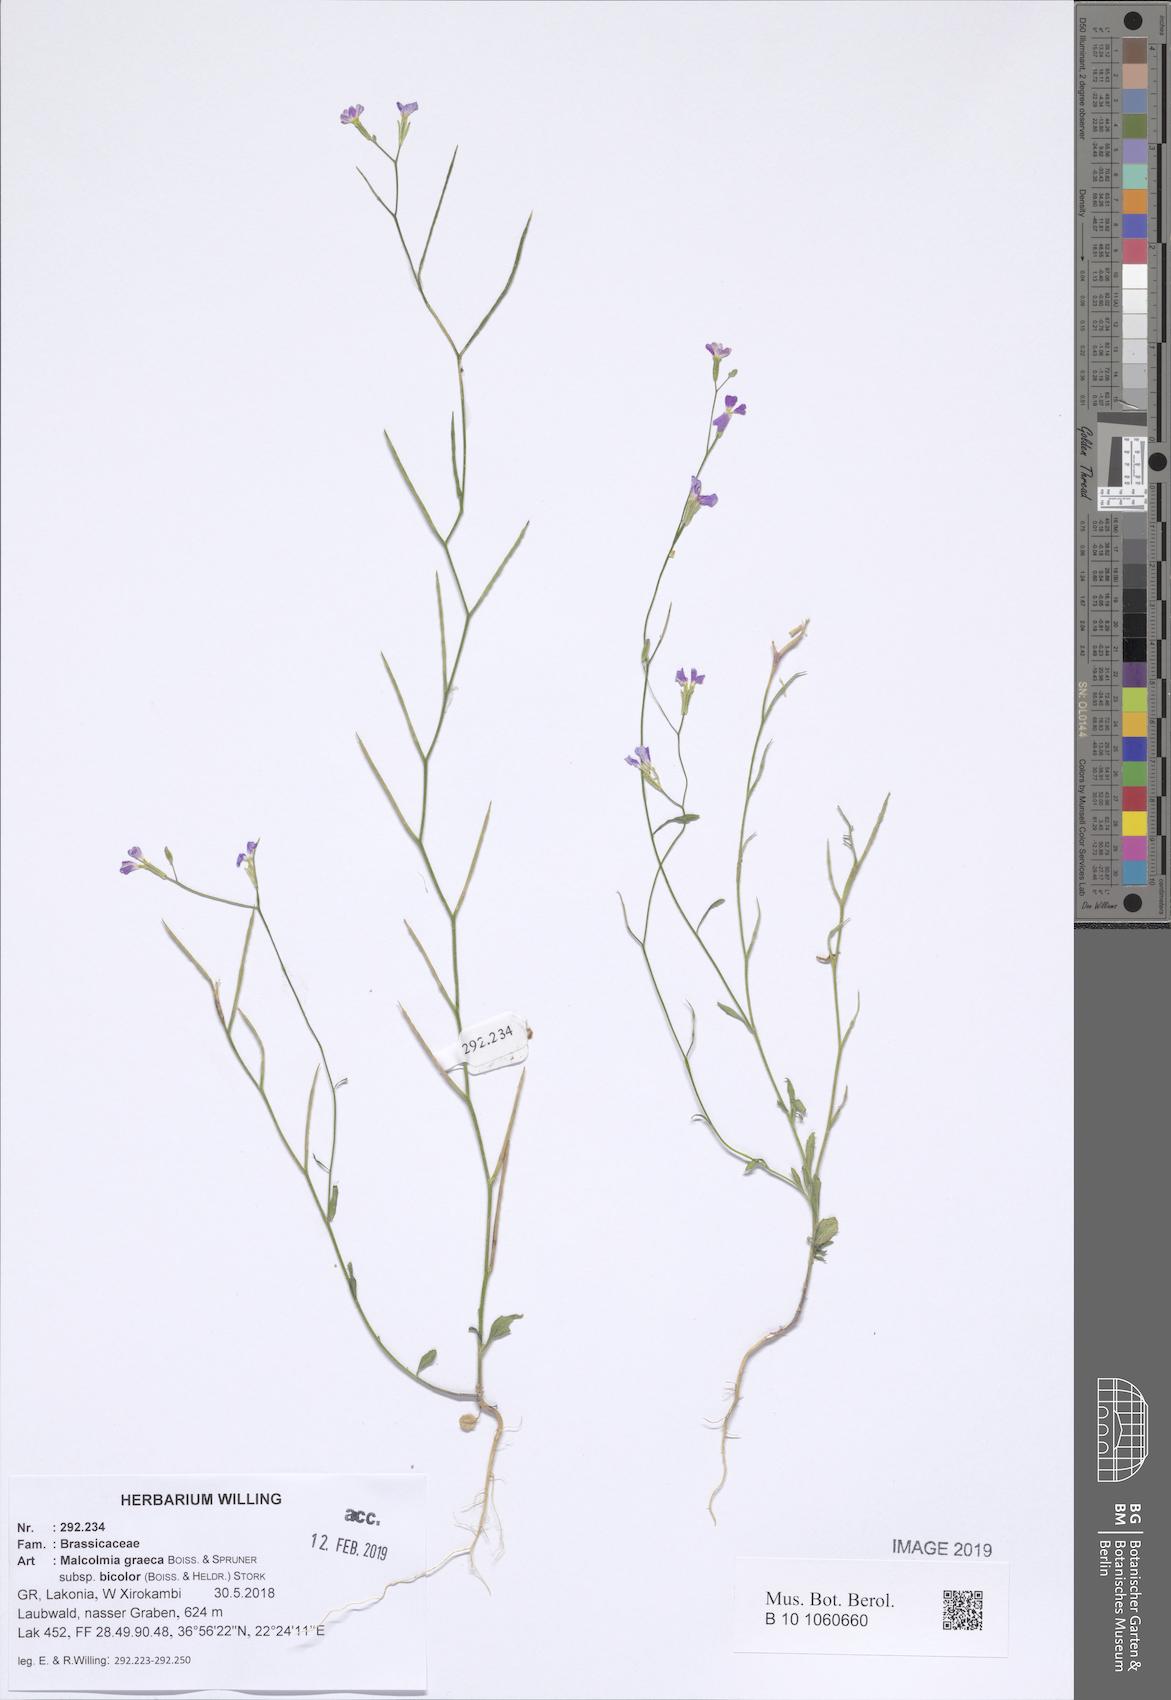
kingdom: Plantae
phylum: Tracheophyta
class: Magnoliopsida
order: Brassicales
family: Brassicaceae
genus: Malcolmia
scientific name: Malcolmia graeca
